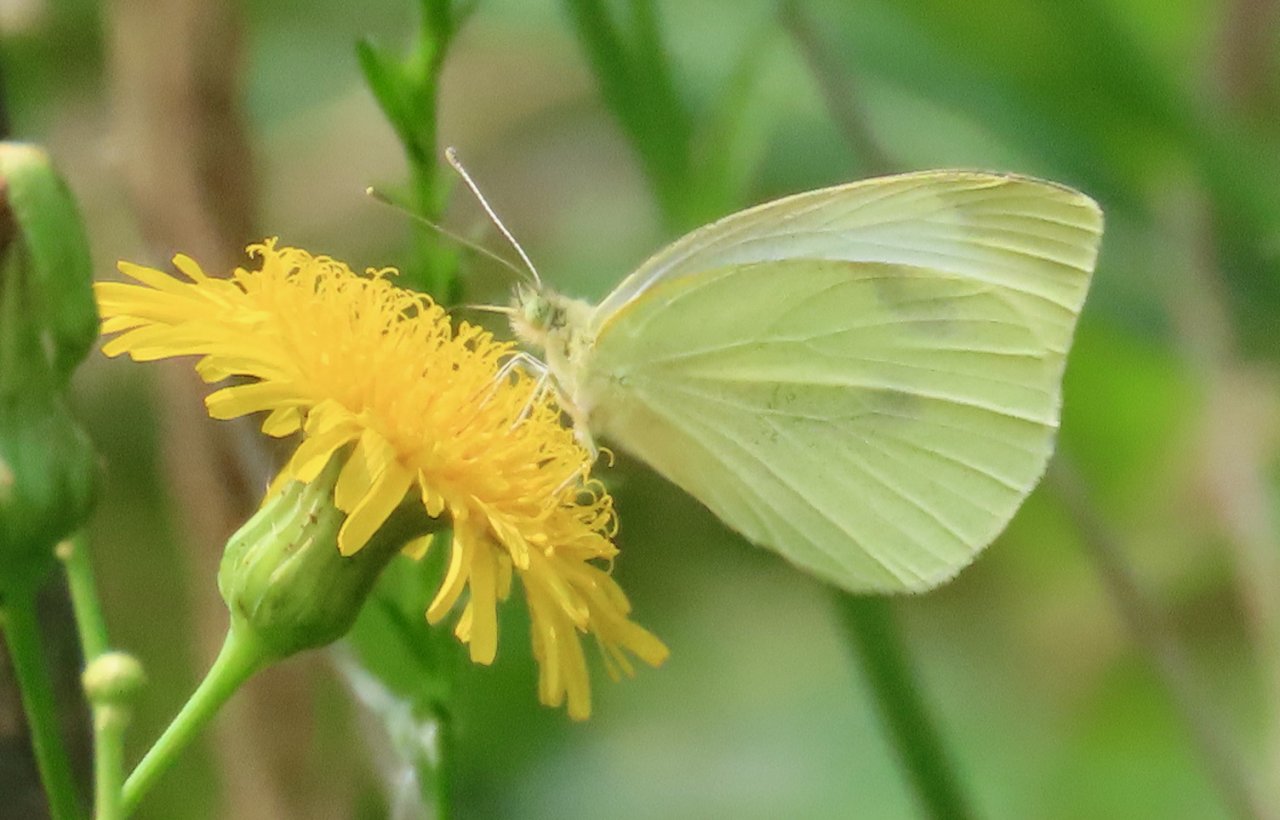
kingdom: Animalia
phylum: Arthropoda
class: Insecta
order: Lepidoptera
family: Pieridae
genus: Pieris
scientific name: Pieris rapae
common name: Cabbage White
